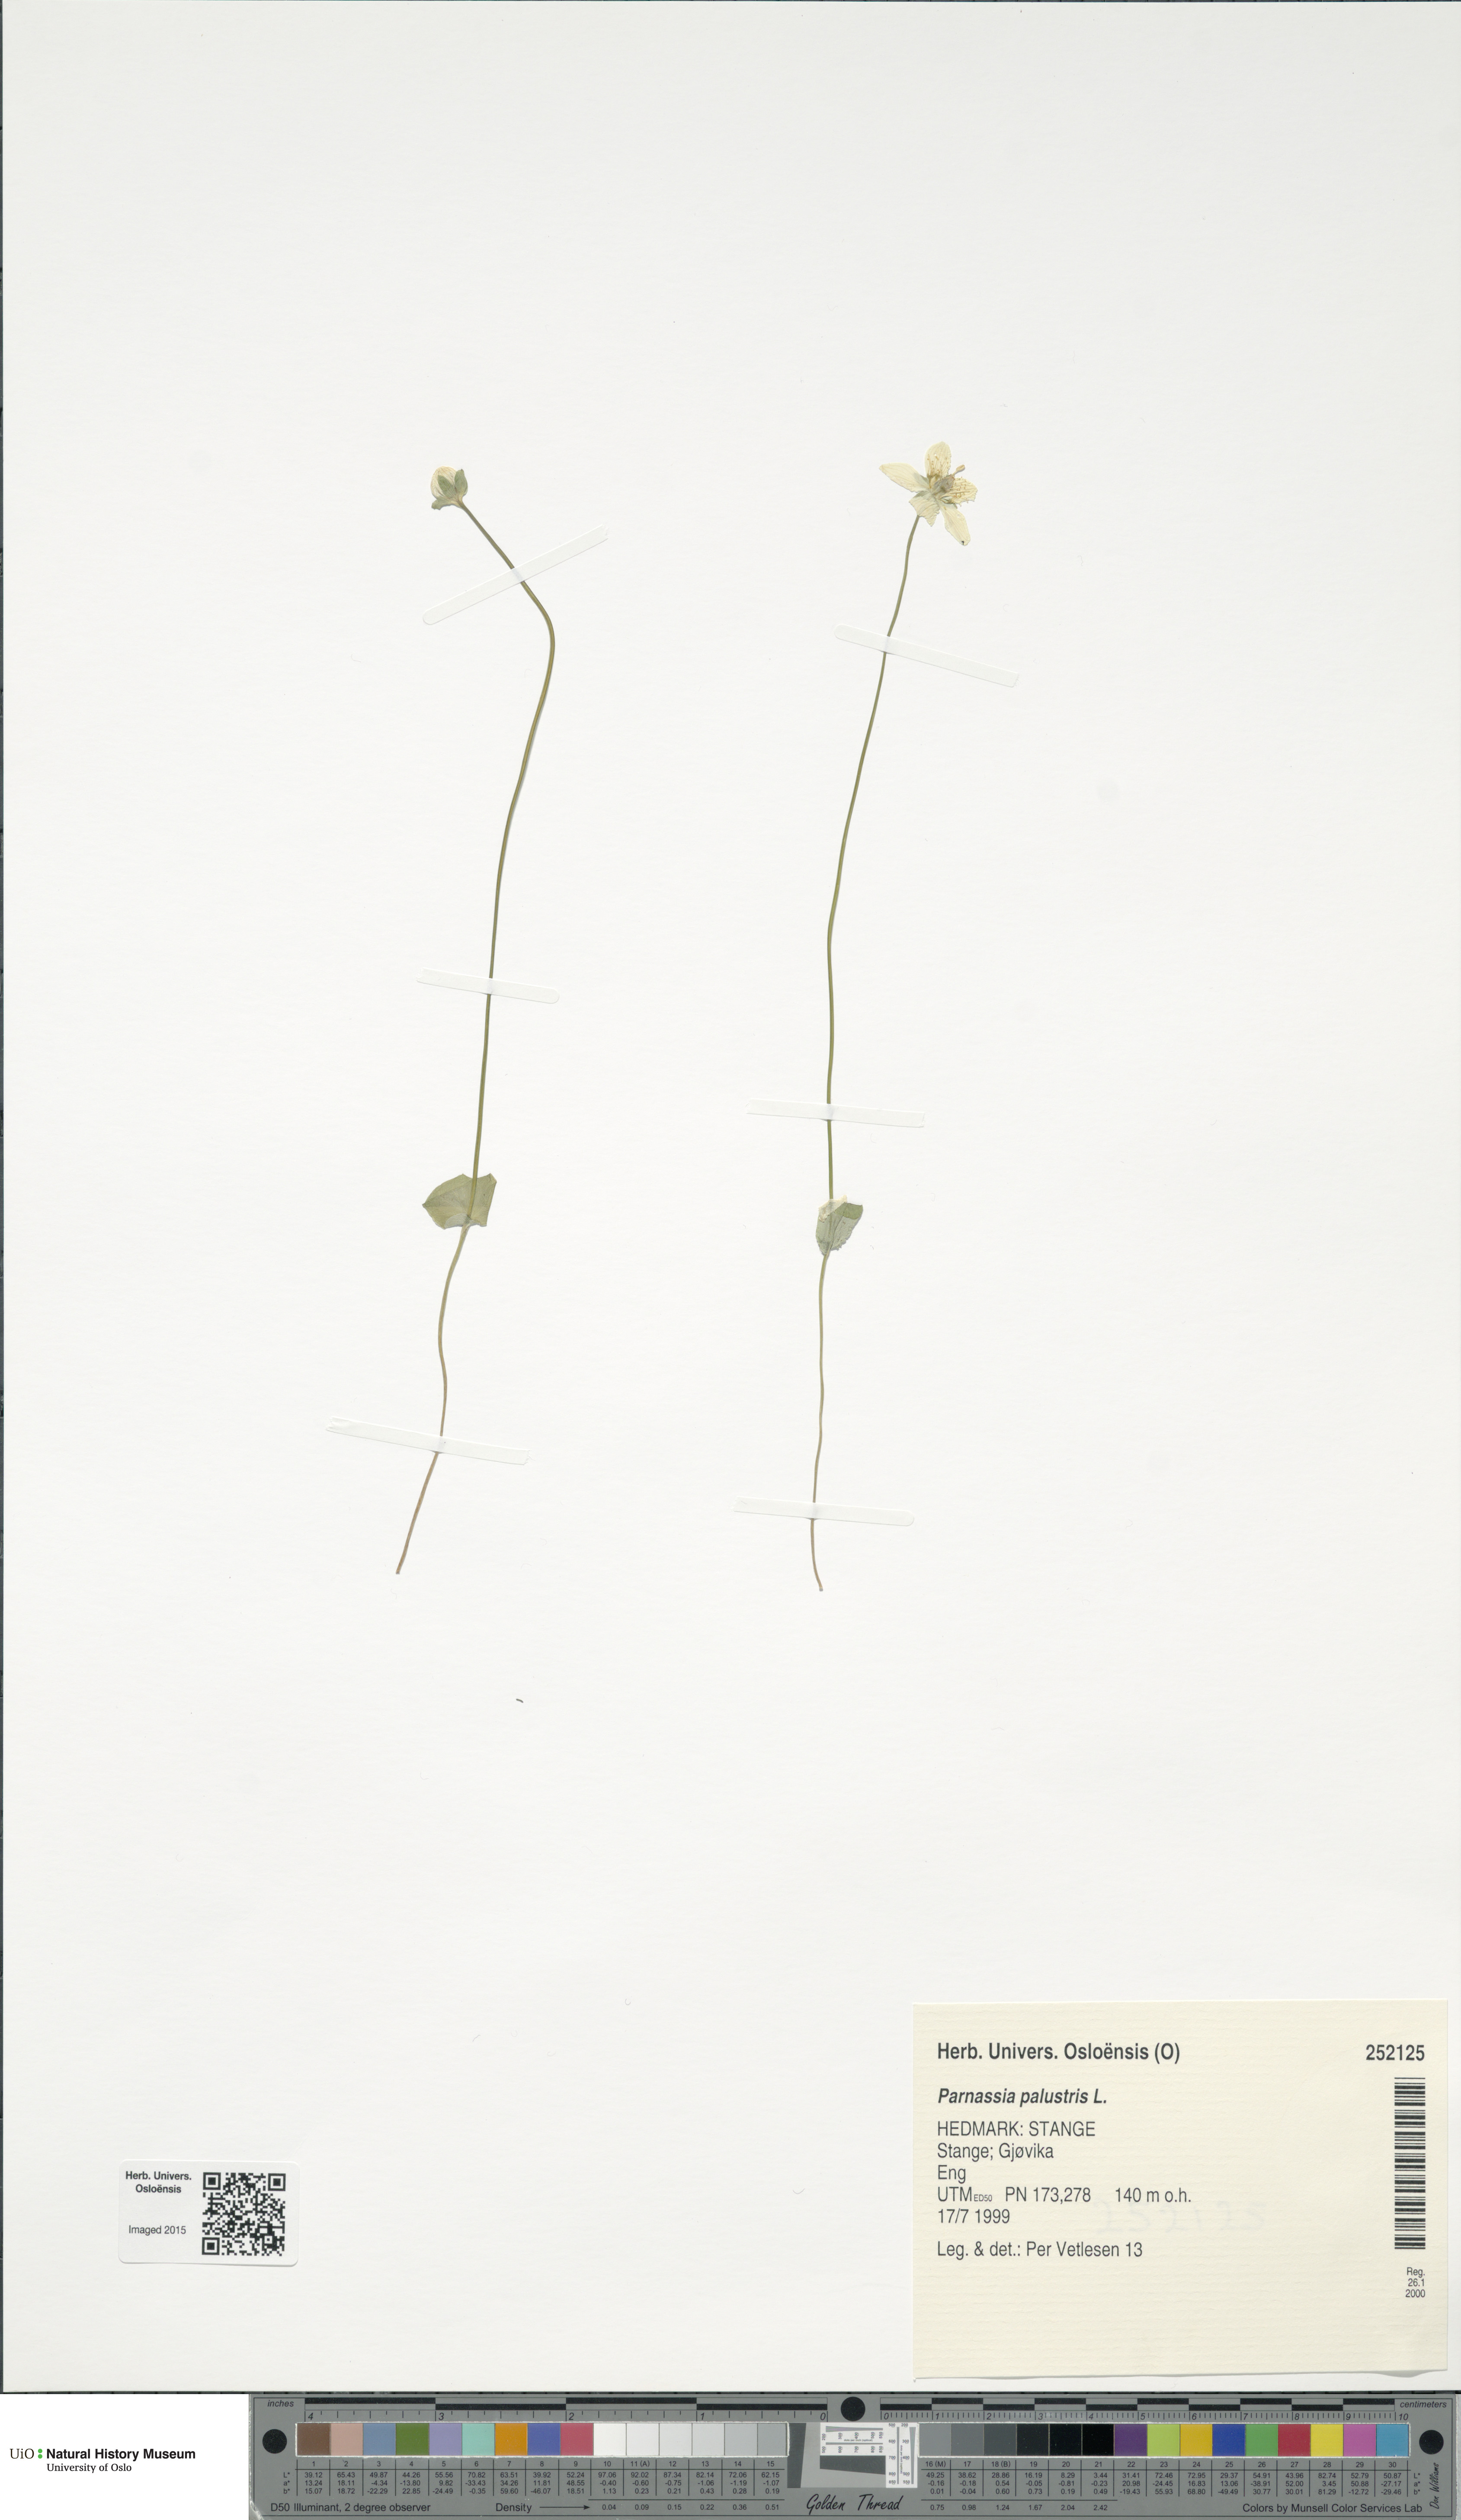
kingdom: Plantae
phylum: Tracheophyta
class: Magnoliopsida
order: Celastrales
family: Parnassiaceae
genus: Parnassia
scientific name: Parnassia palustris
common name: Grass-of-parnassus
